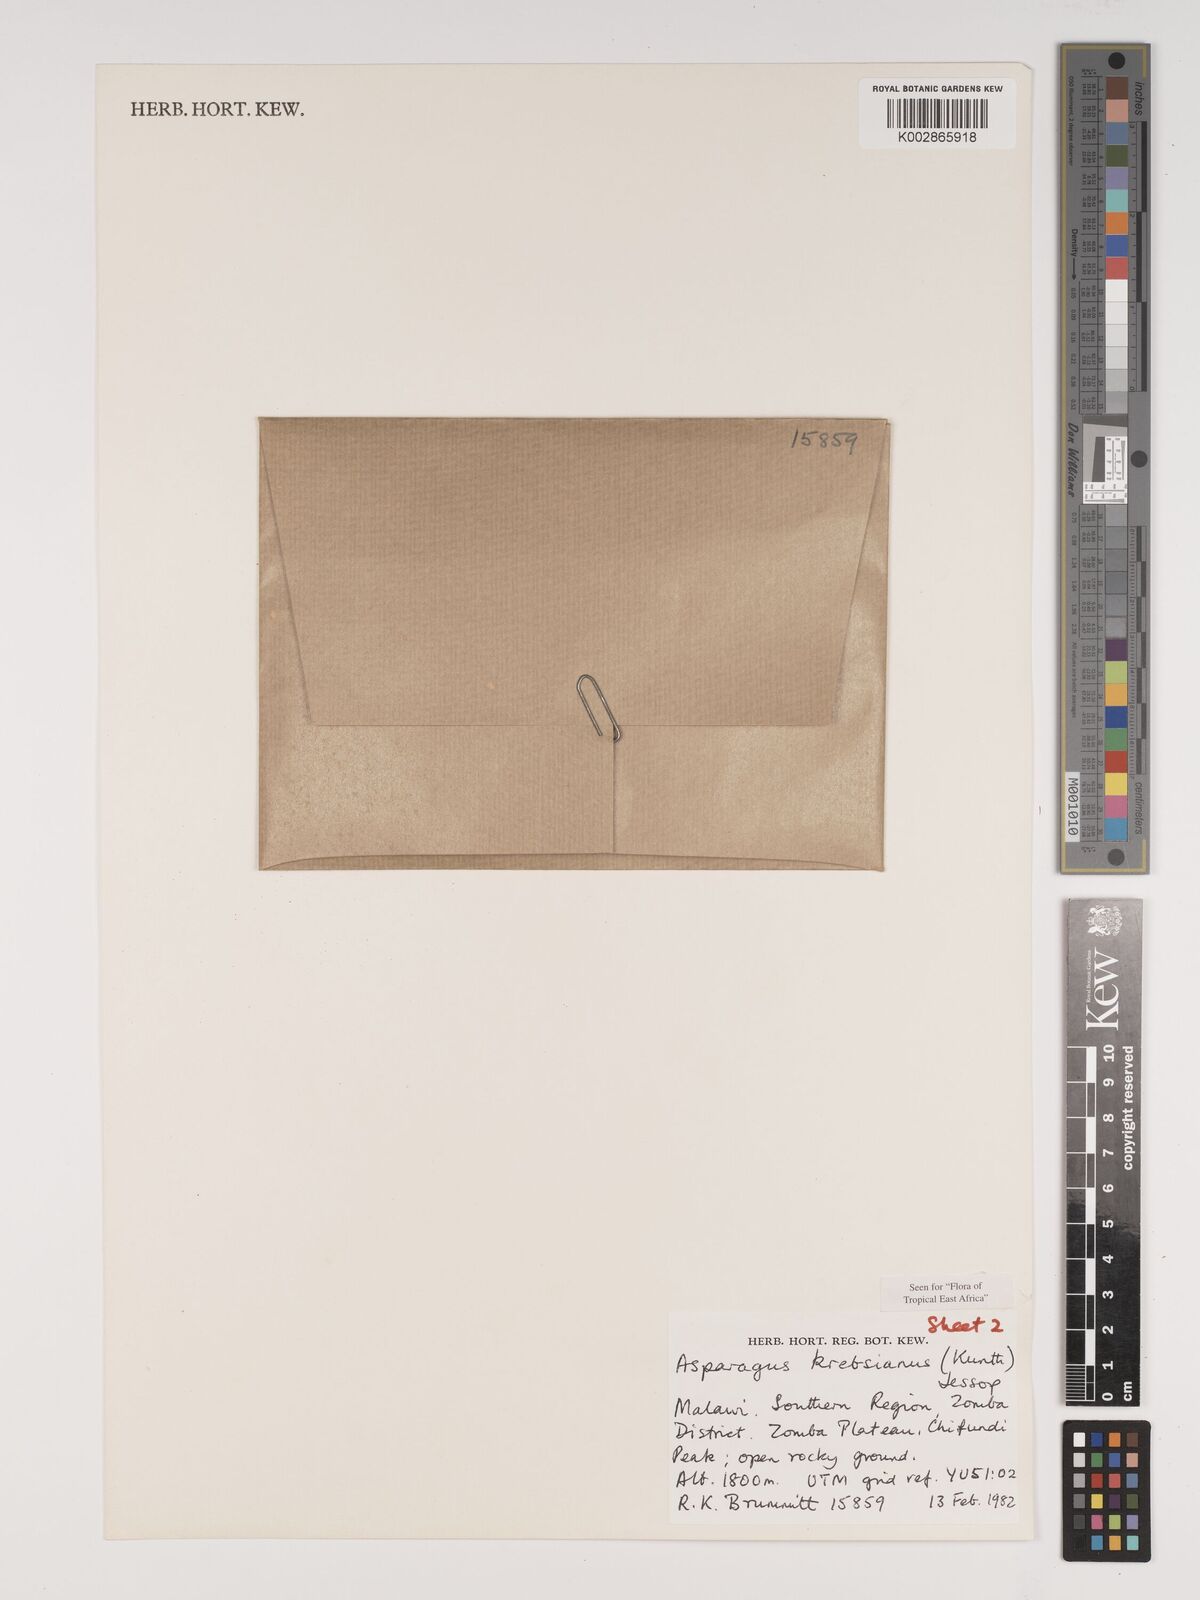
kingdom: Plantae
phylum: Tracheophyta
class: Liliopsida
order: Asparagales
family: Asparagaceae
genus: Asparagus
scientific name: Asparagus krebsianus
